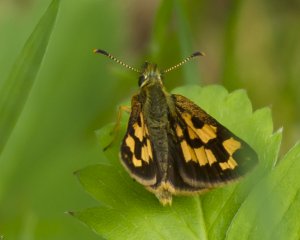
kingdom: Animalia
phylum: Arthropoda
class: Insecta
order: Lepidoptera
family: Hesperiidae
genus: Carterocephalus
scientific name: Carterocephalus palaemon
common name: Chequered Skipper
